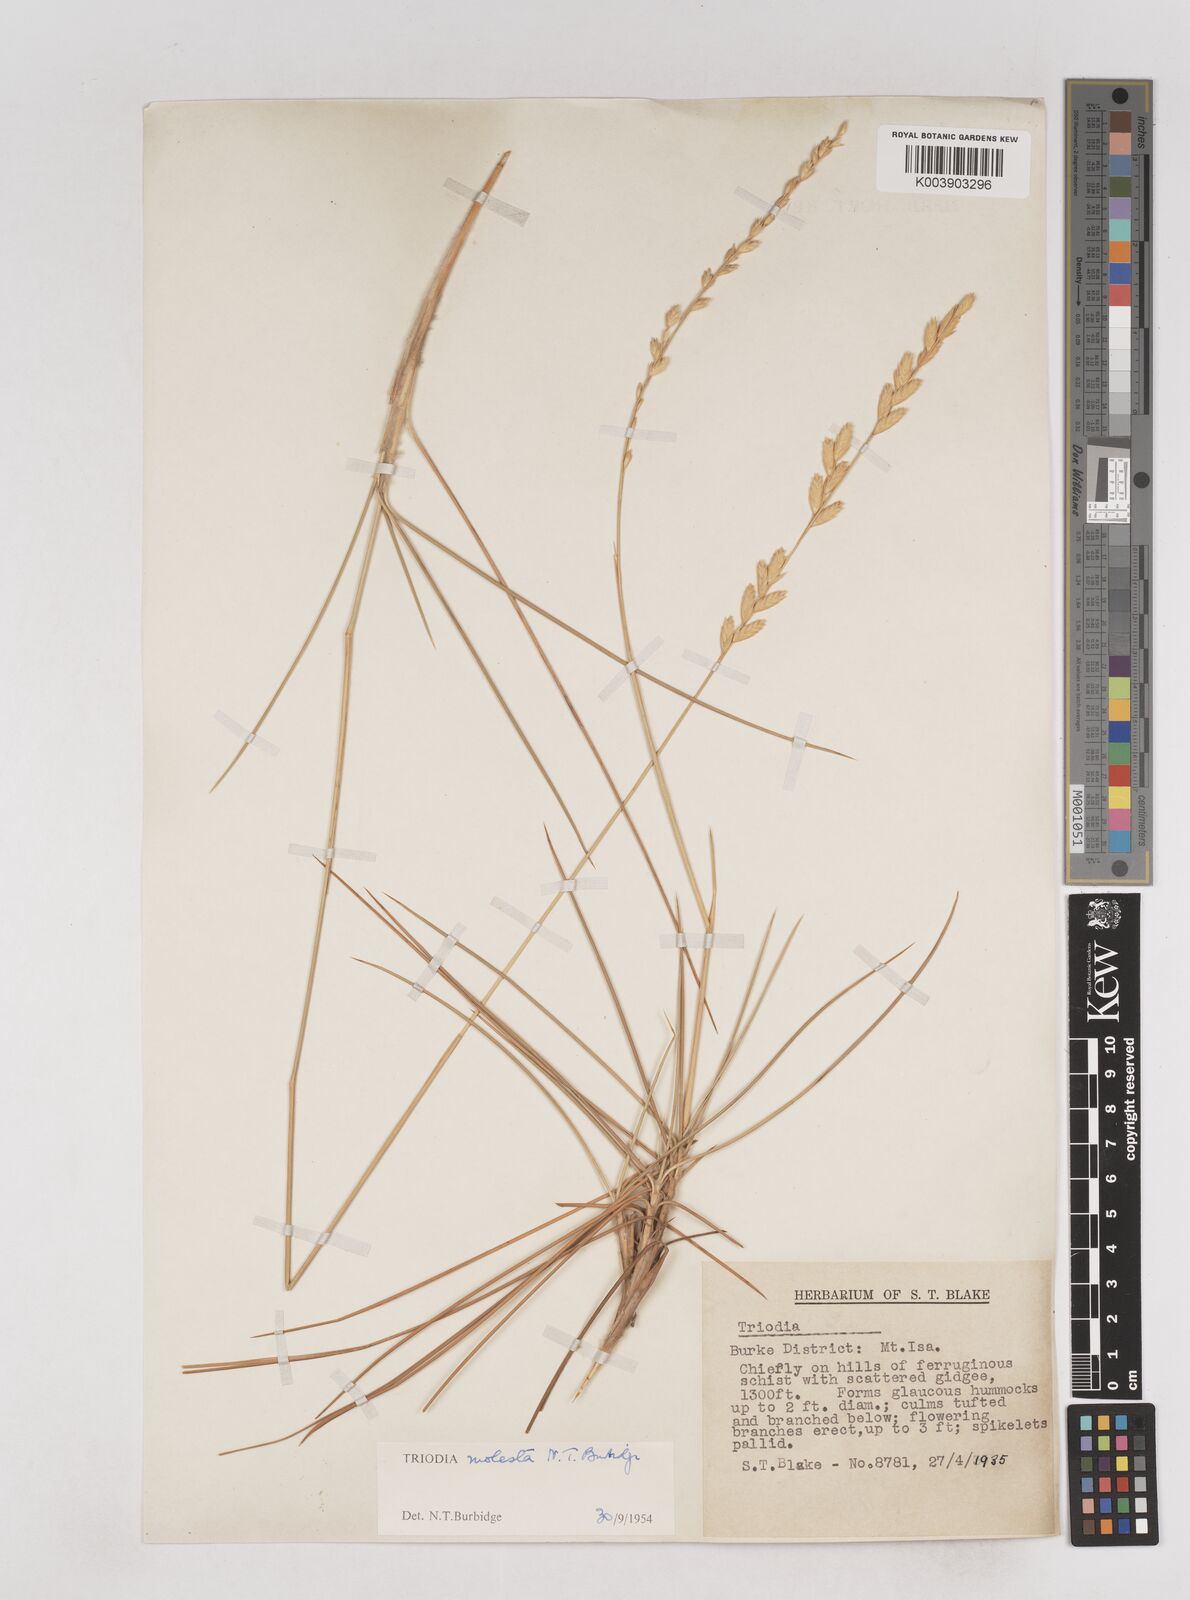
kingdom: Plantae
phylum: Tracheophyta
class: Liliopsida
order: Poales
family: Poaceae
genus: Triodia
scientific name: Triodia molesta
